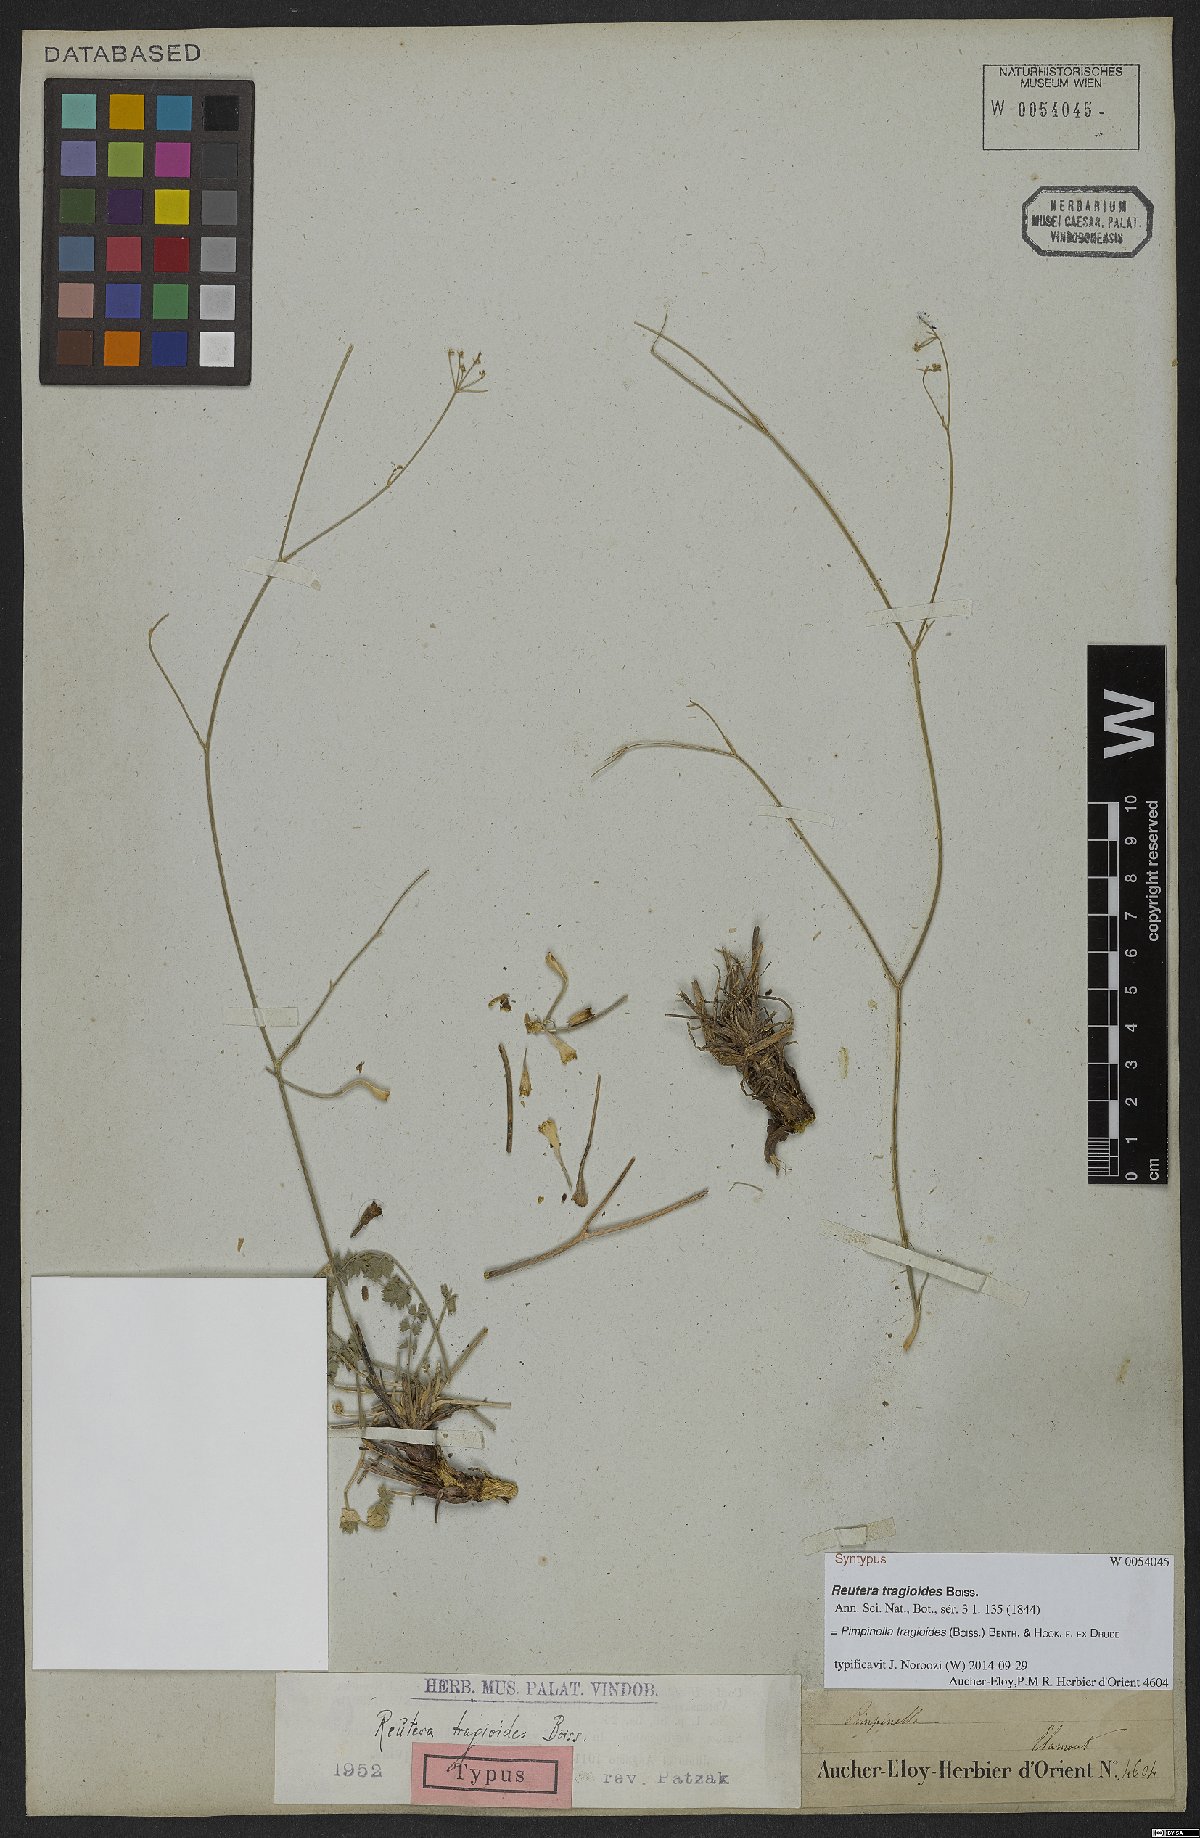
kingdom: Plantae
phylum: Tracheophyta
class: Magnoliopsida
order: Apiales
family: Apiaceae
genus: Pimpinella
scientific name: Pimpinella tragioides
